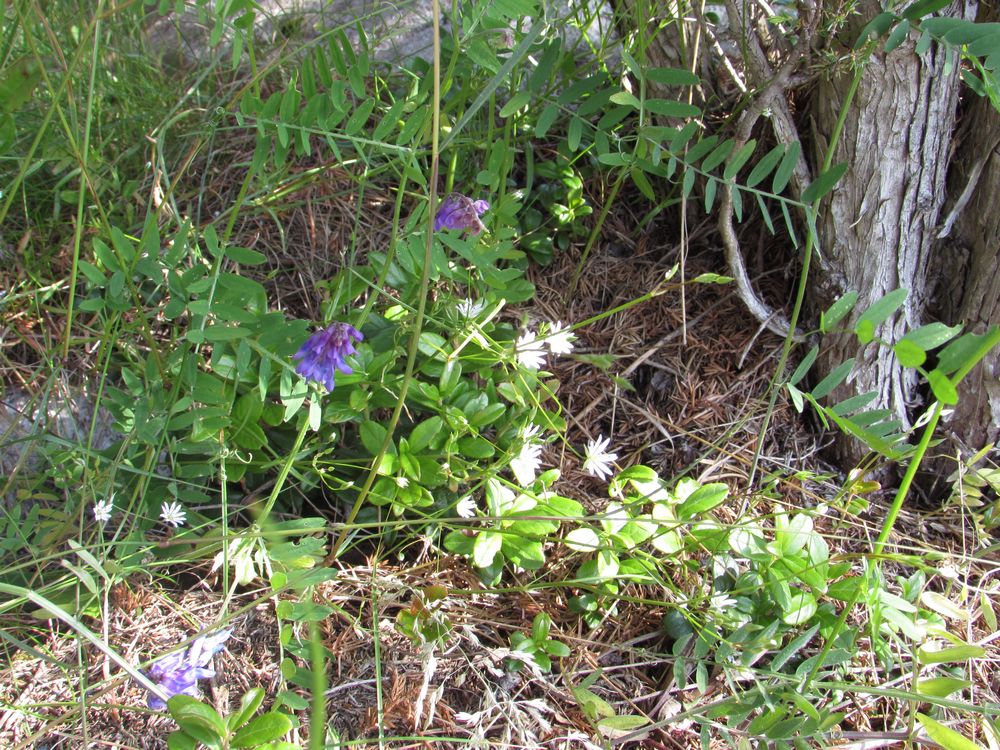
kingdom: Plantae
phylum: Tracheophyta
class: Magnoliopsida
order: Fabales
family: Fabaceae
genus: Vicia
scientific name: Vicia cracca
